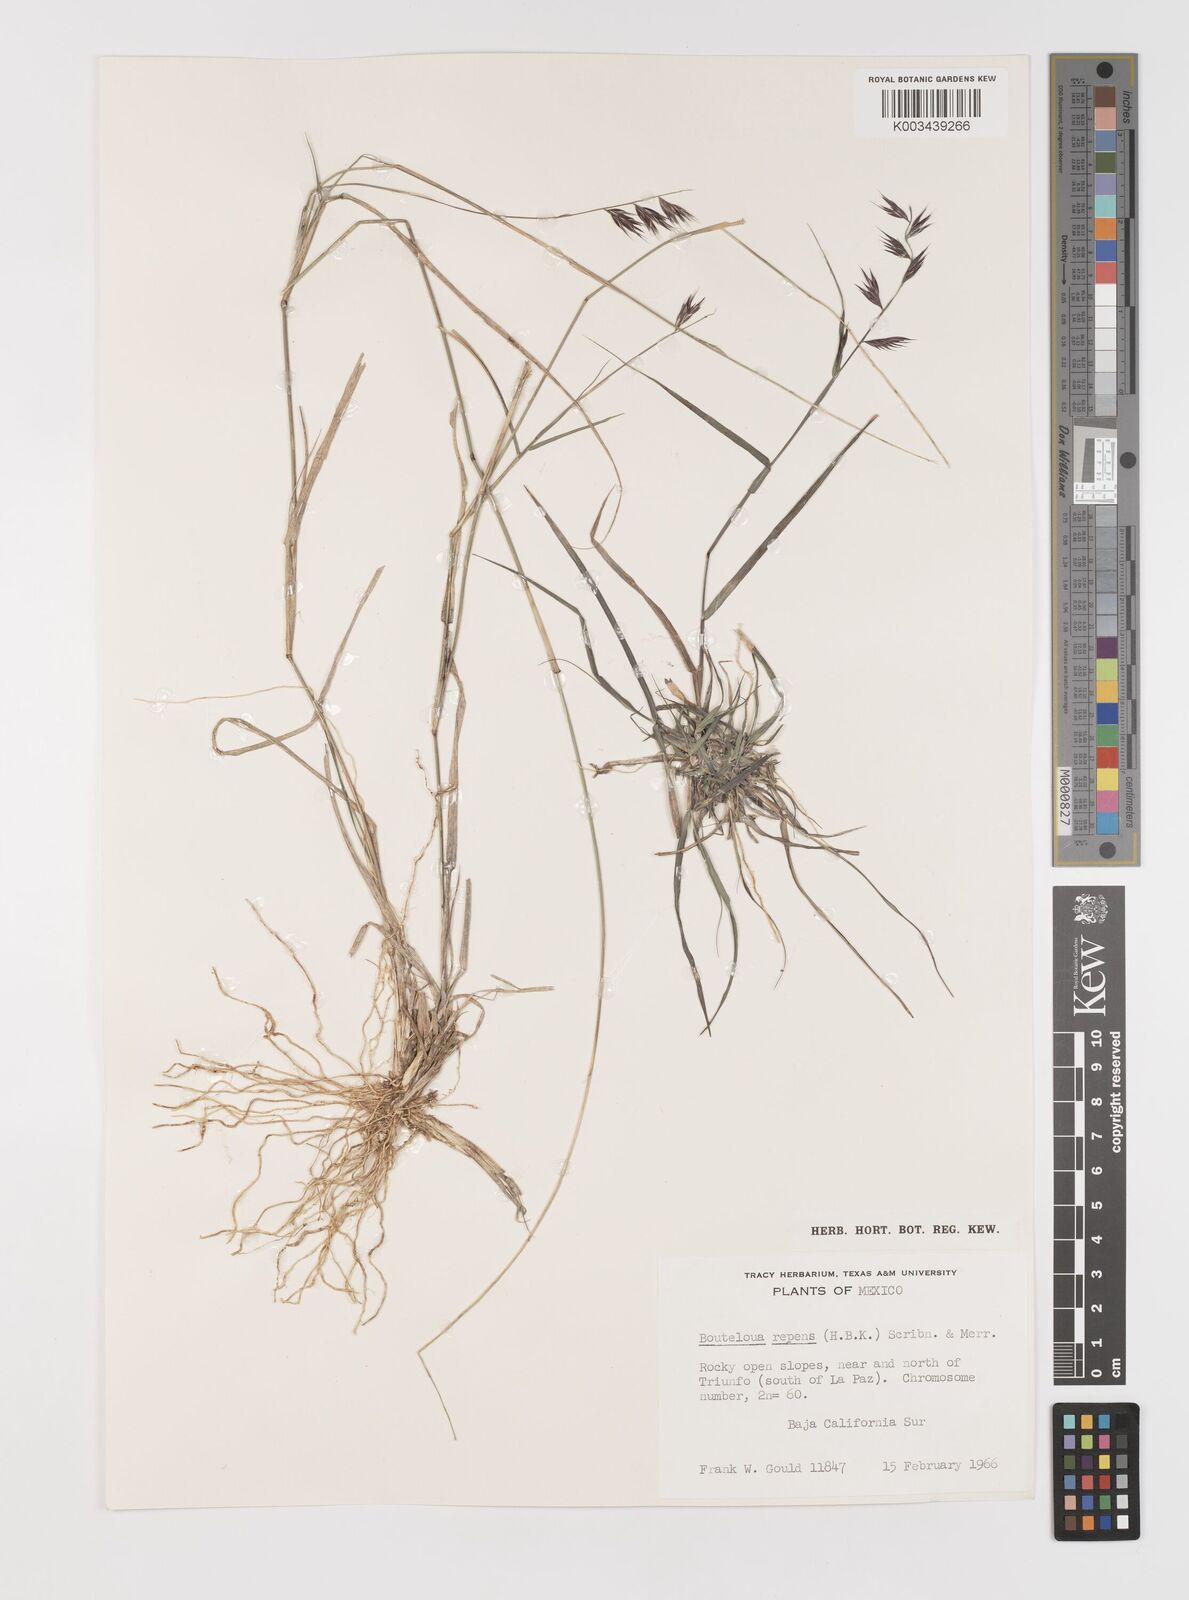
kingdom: Plantae
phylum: Tracheophyta
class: Liliopsida
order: Poales
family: Poaceae
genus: Bouteloua
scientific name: Bouteloua repens
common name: Slender grama
